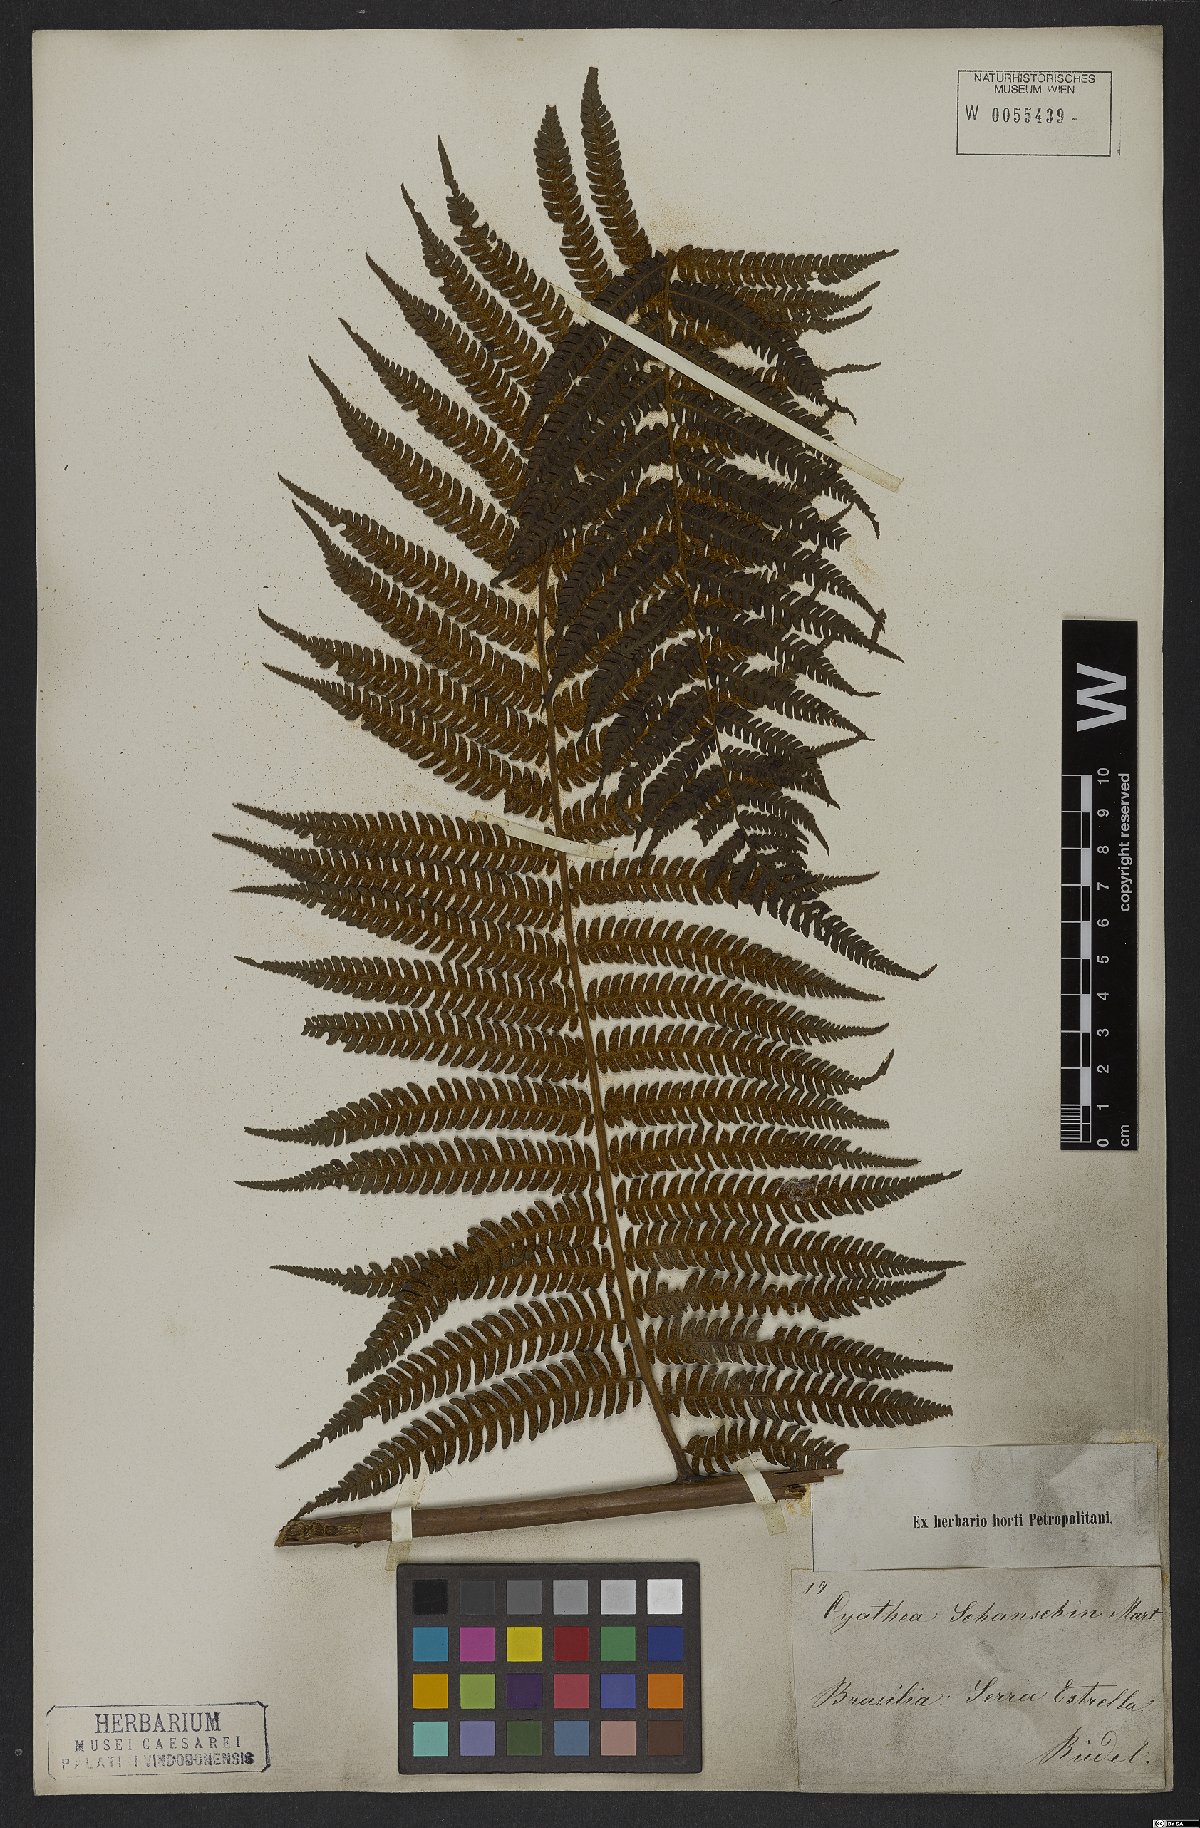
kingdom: Plantae
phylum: Tracheophyta
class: Polypodiopsida
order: Cyatheales
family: Cyatheaceae
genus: Cyathea
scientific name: Cyathea atrovirens
